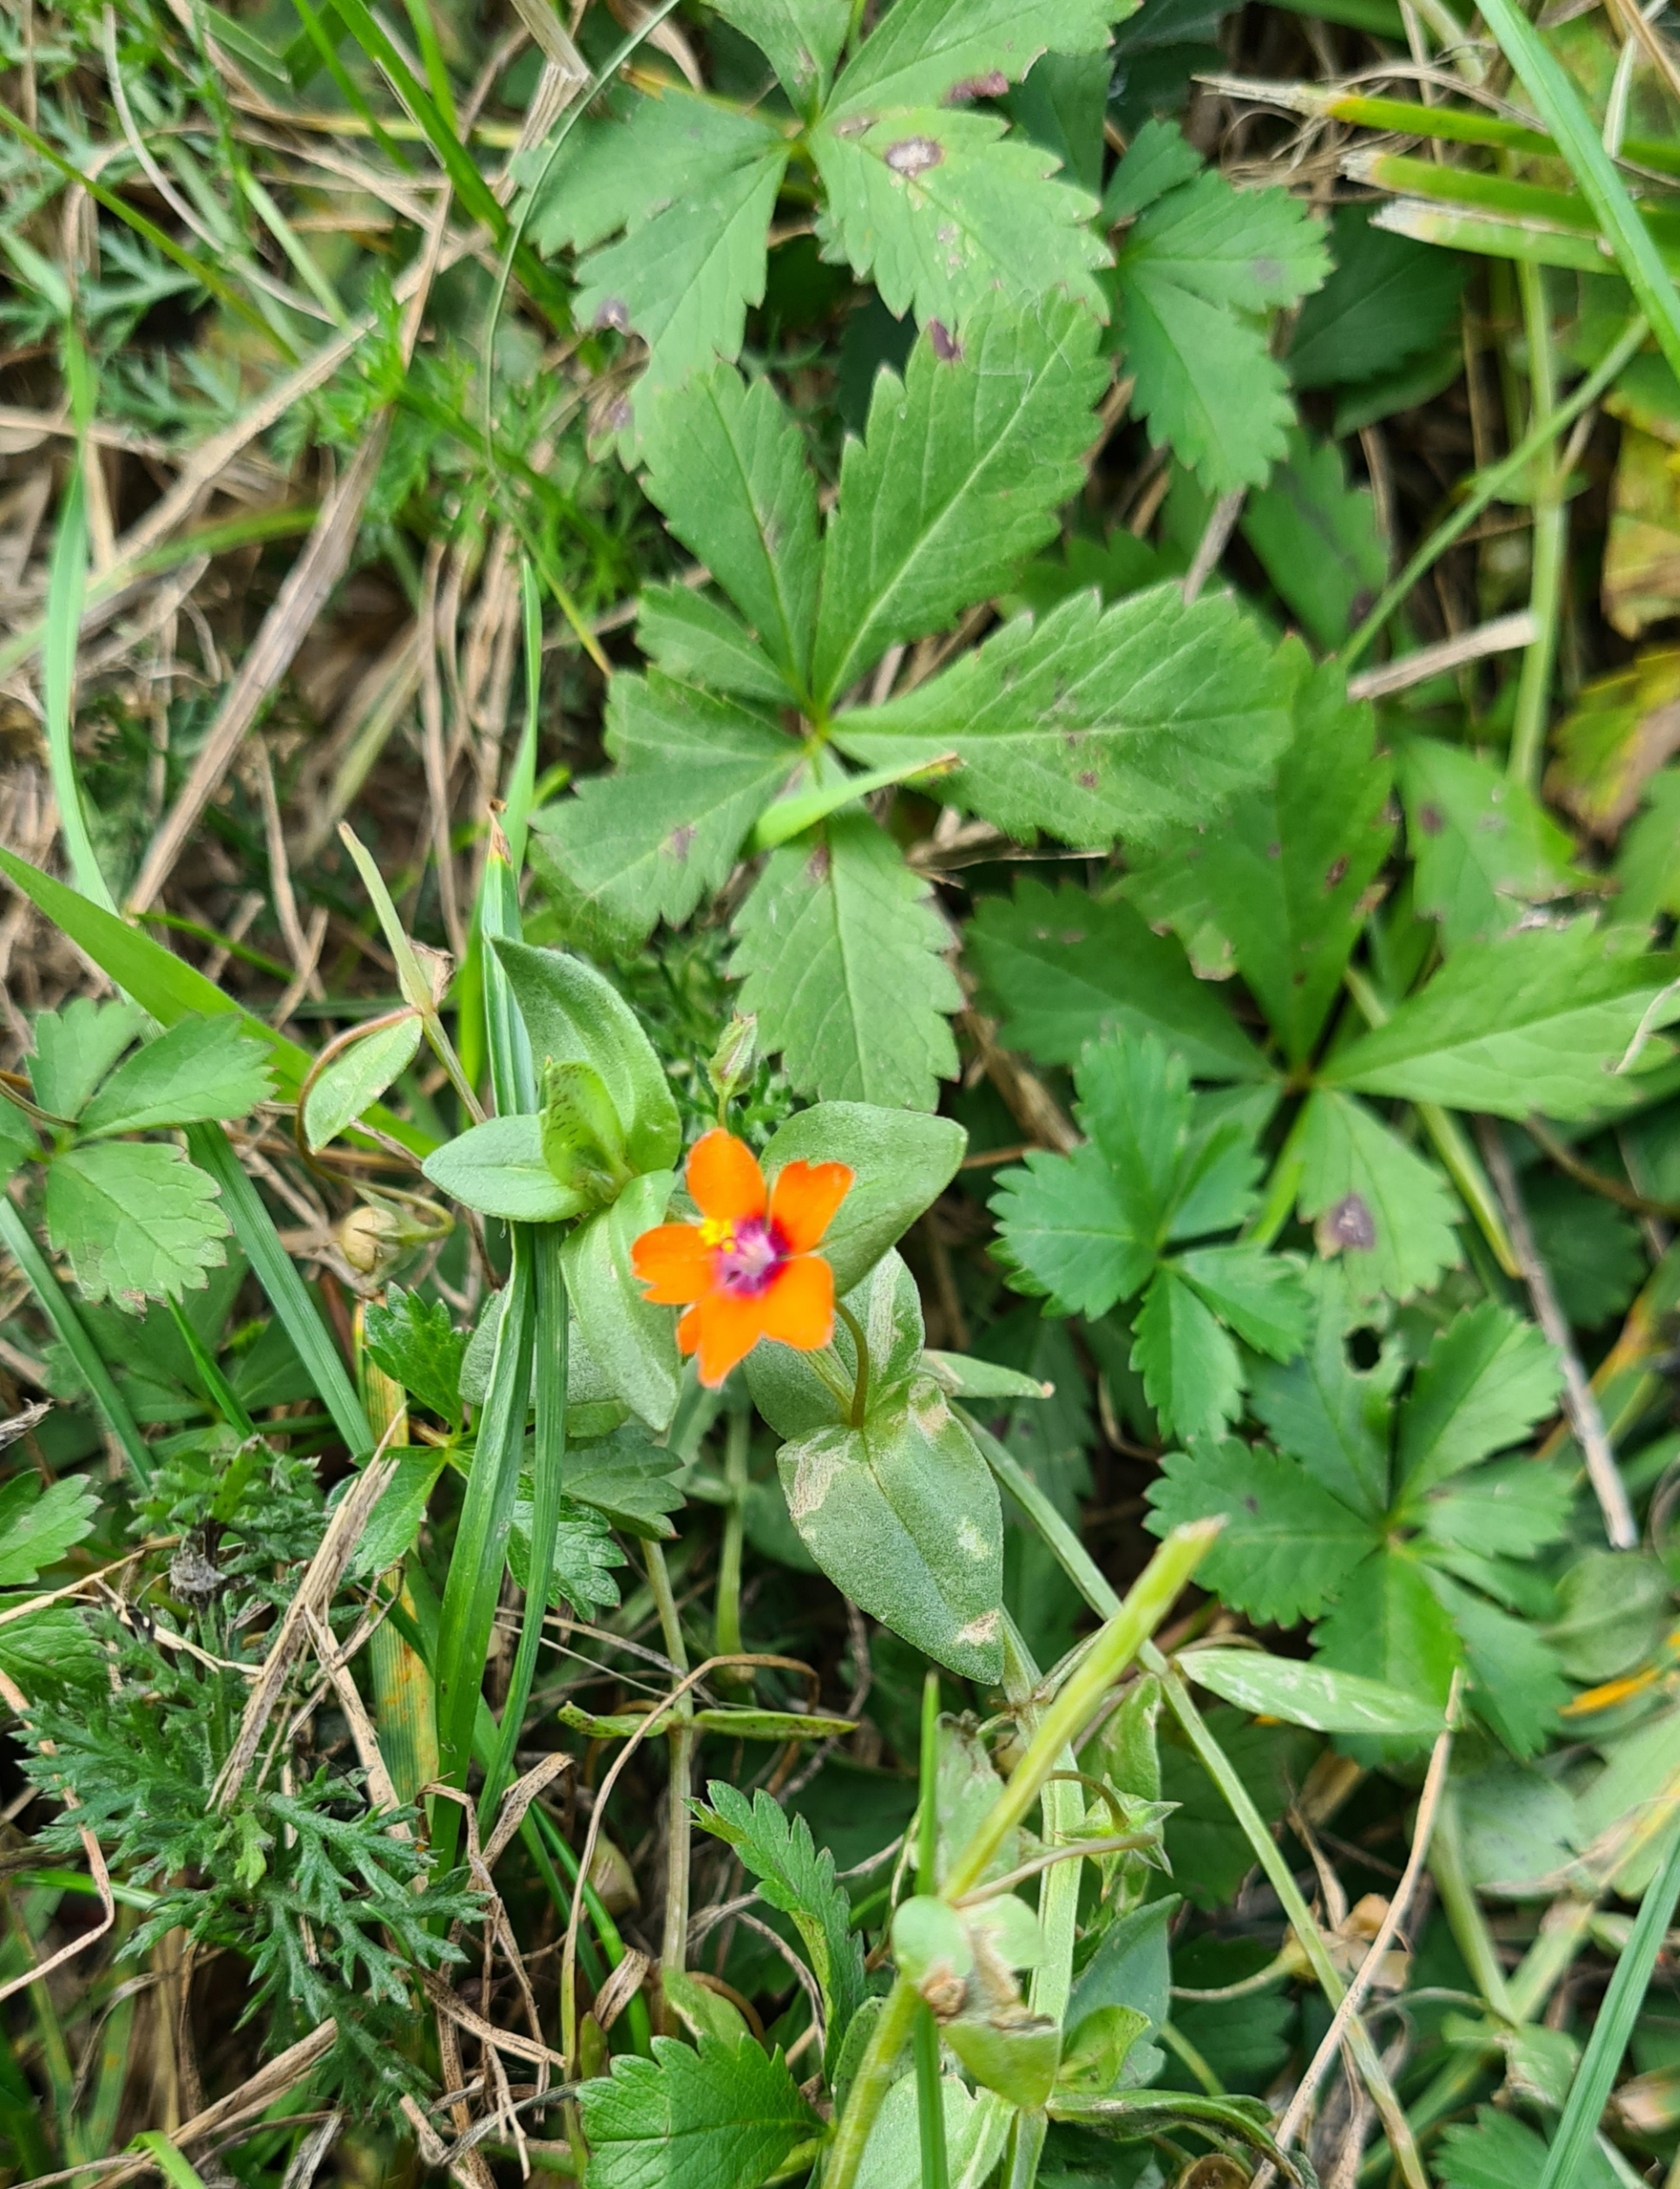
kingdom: Plantae
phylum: Tracheophyta
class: Magnoliopsida
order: Ericales
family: Primulaceae
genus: Lysimachia
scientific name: Lysimachia arvensis
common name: Rød arve
